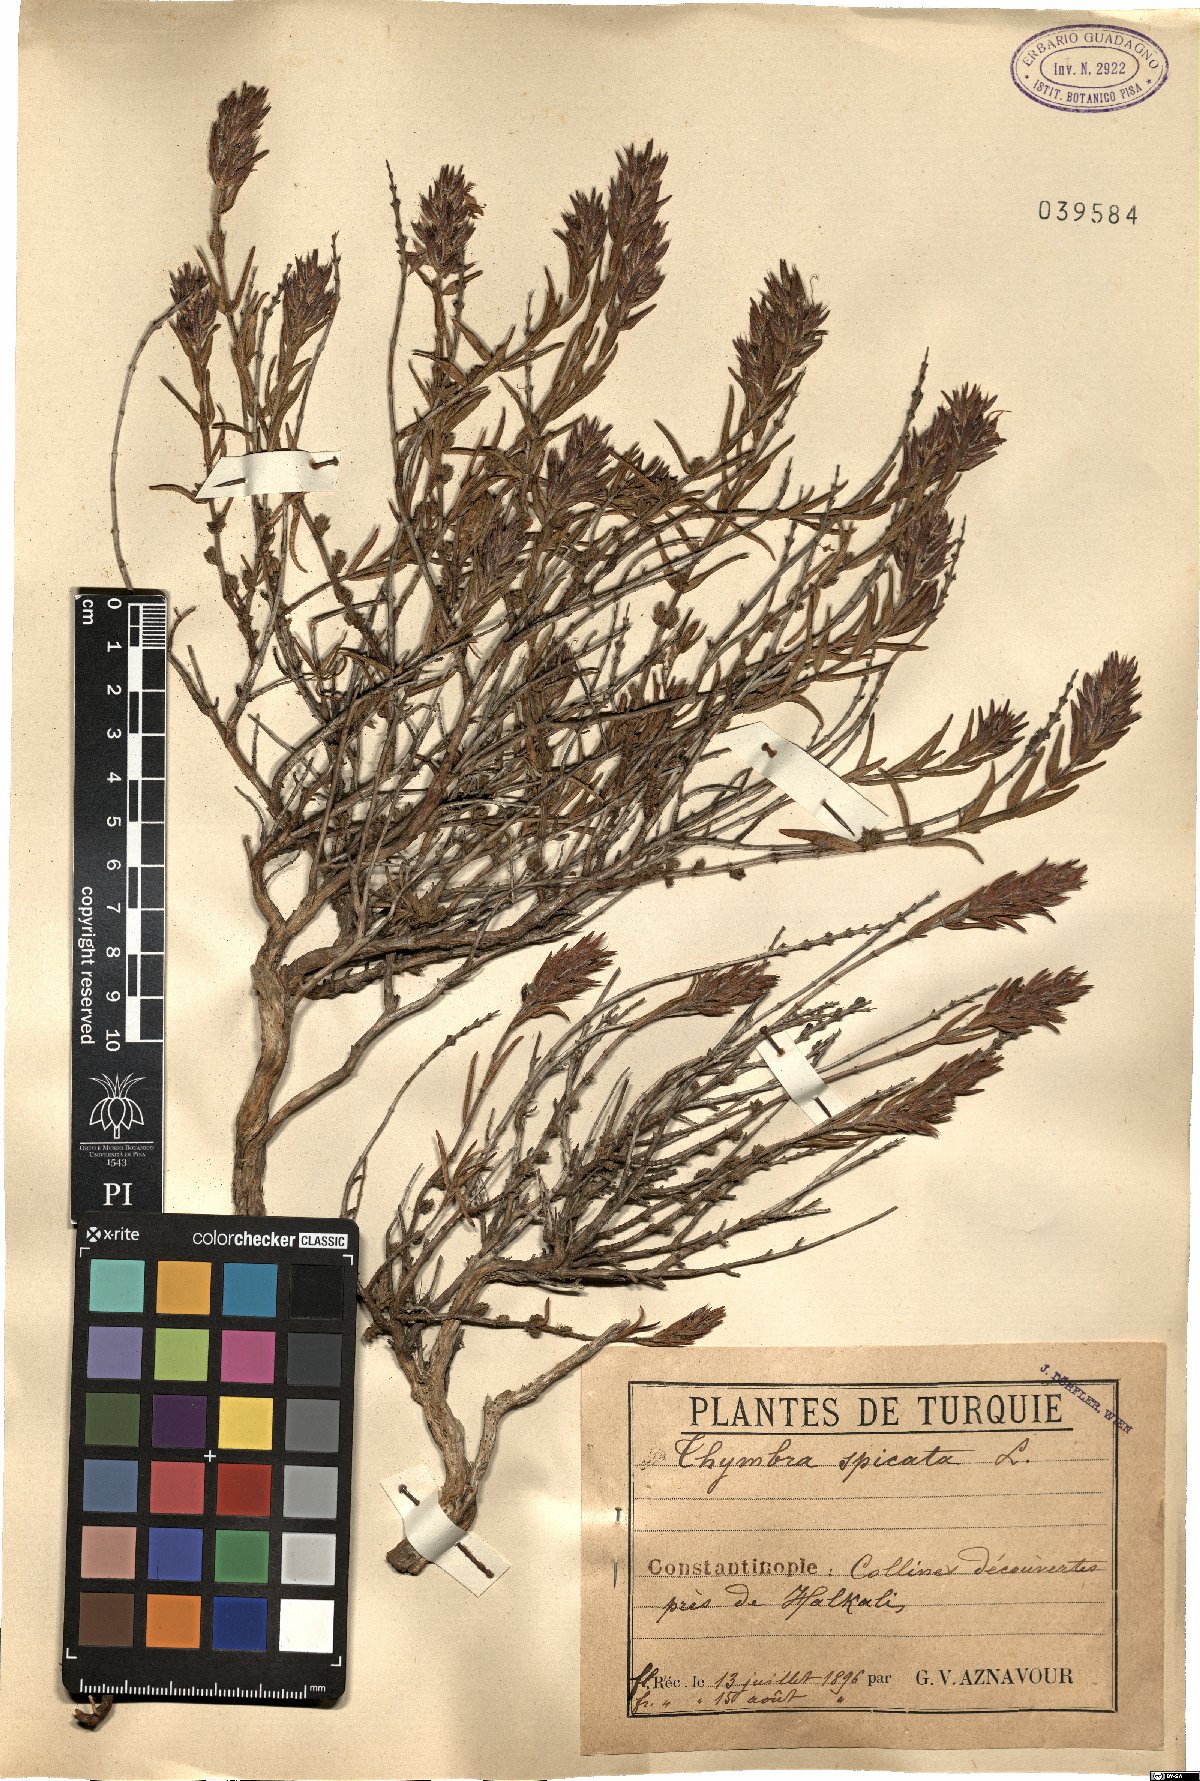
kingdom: Plantae
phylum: Tracheophyta
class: Magnoliopsida
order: Lamiales
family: Lamiaceae
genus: Thymbra
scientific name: Thymbra spicata
